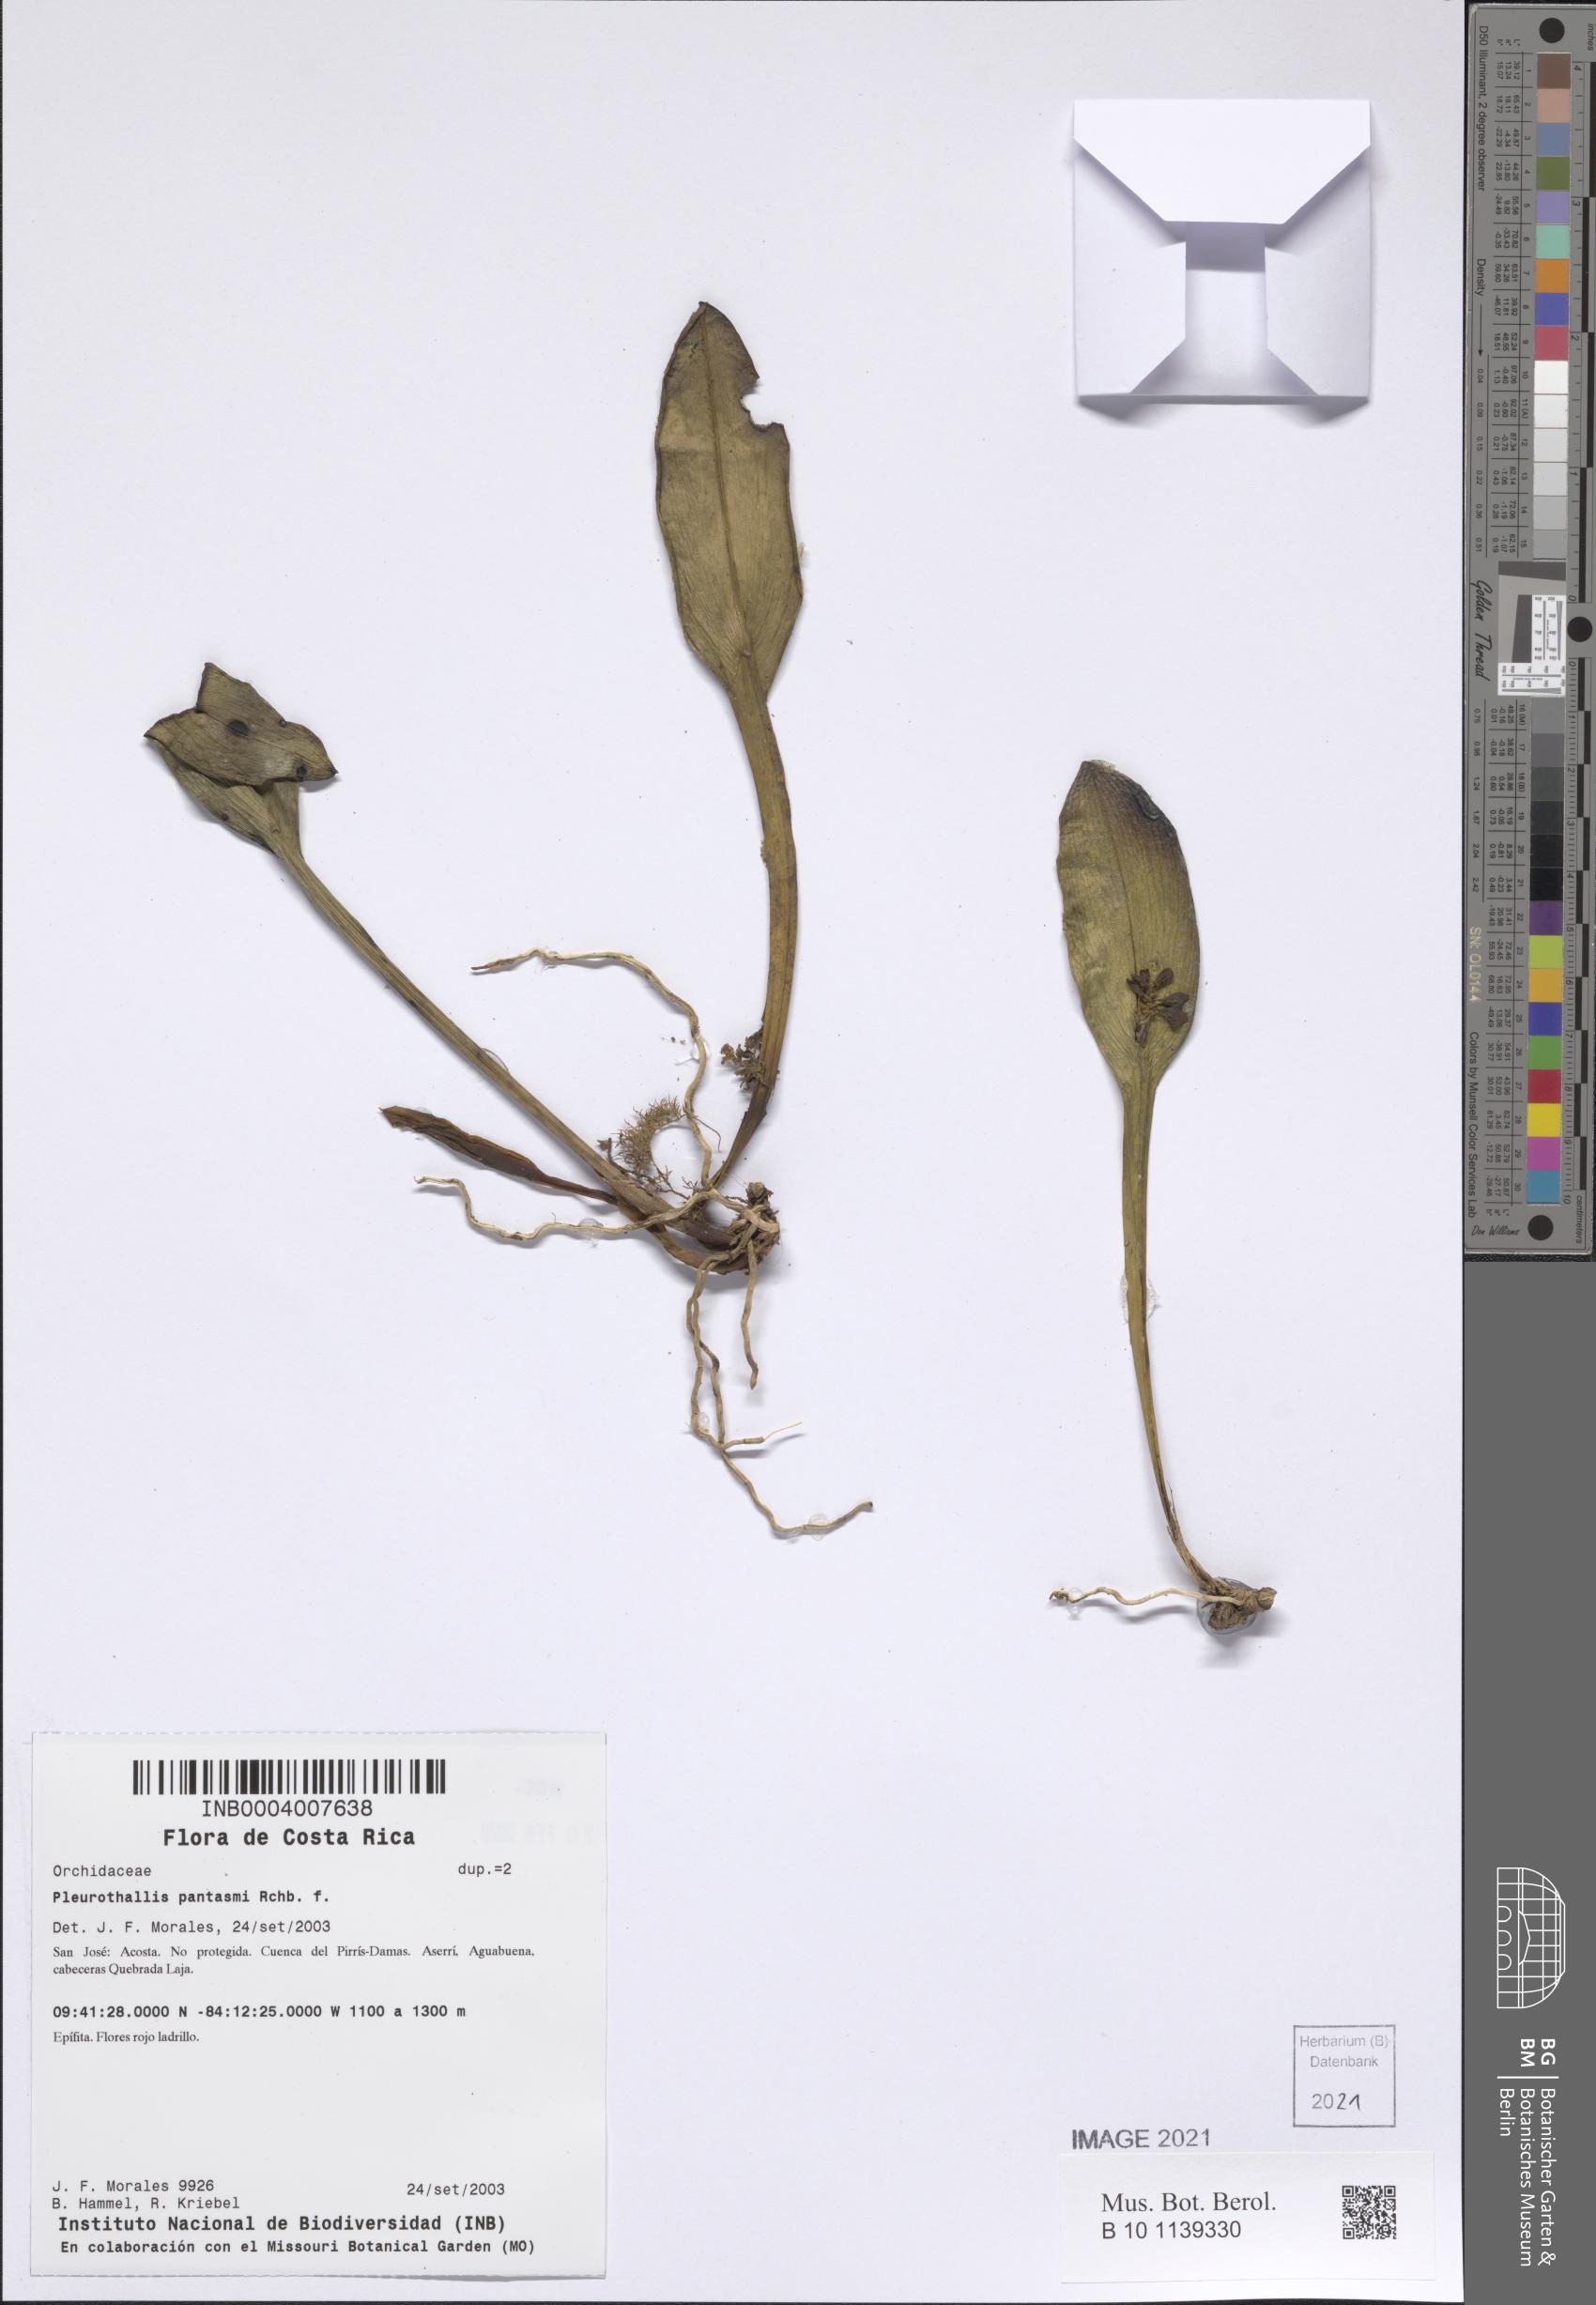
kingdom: Plantae
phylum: Tracheophyta
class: Liliopsida
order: Asparagales
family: Orchidaceae
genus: Acianthera
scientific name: Acianthera pantasmi
